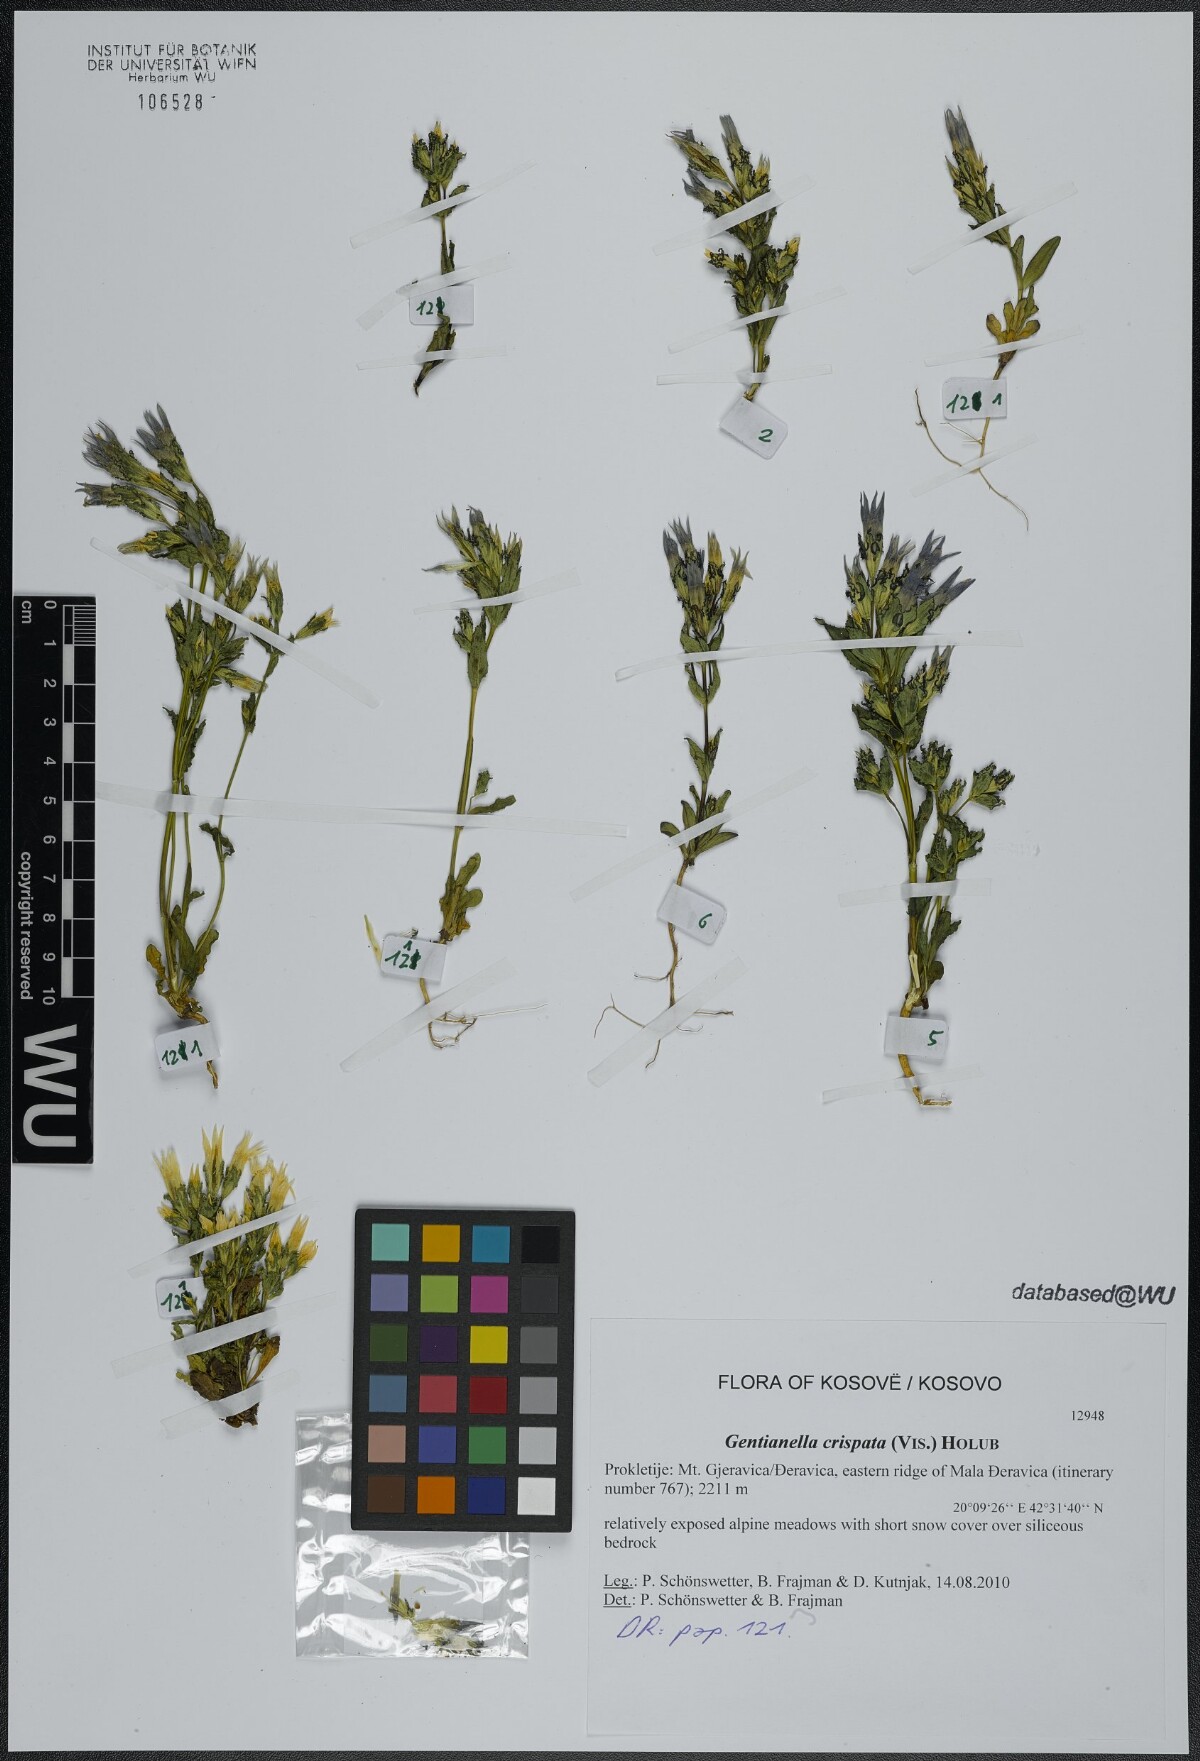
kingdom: Plantae
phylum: Tracheophyta
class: Magnoliopsida
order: Gentianales
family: Gentianaceae
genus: Gentianella
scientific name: Gentianella crispata
